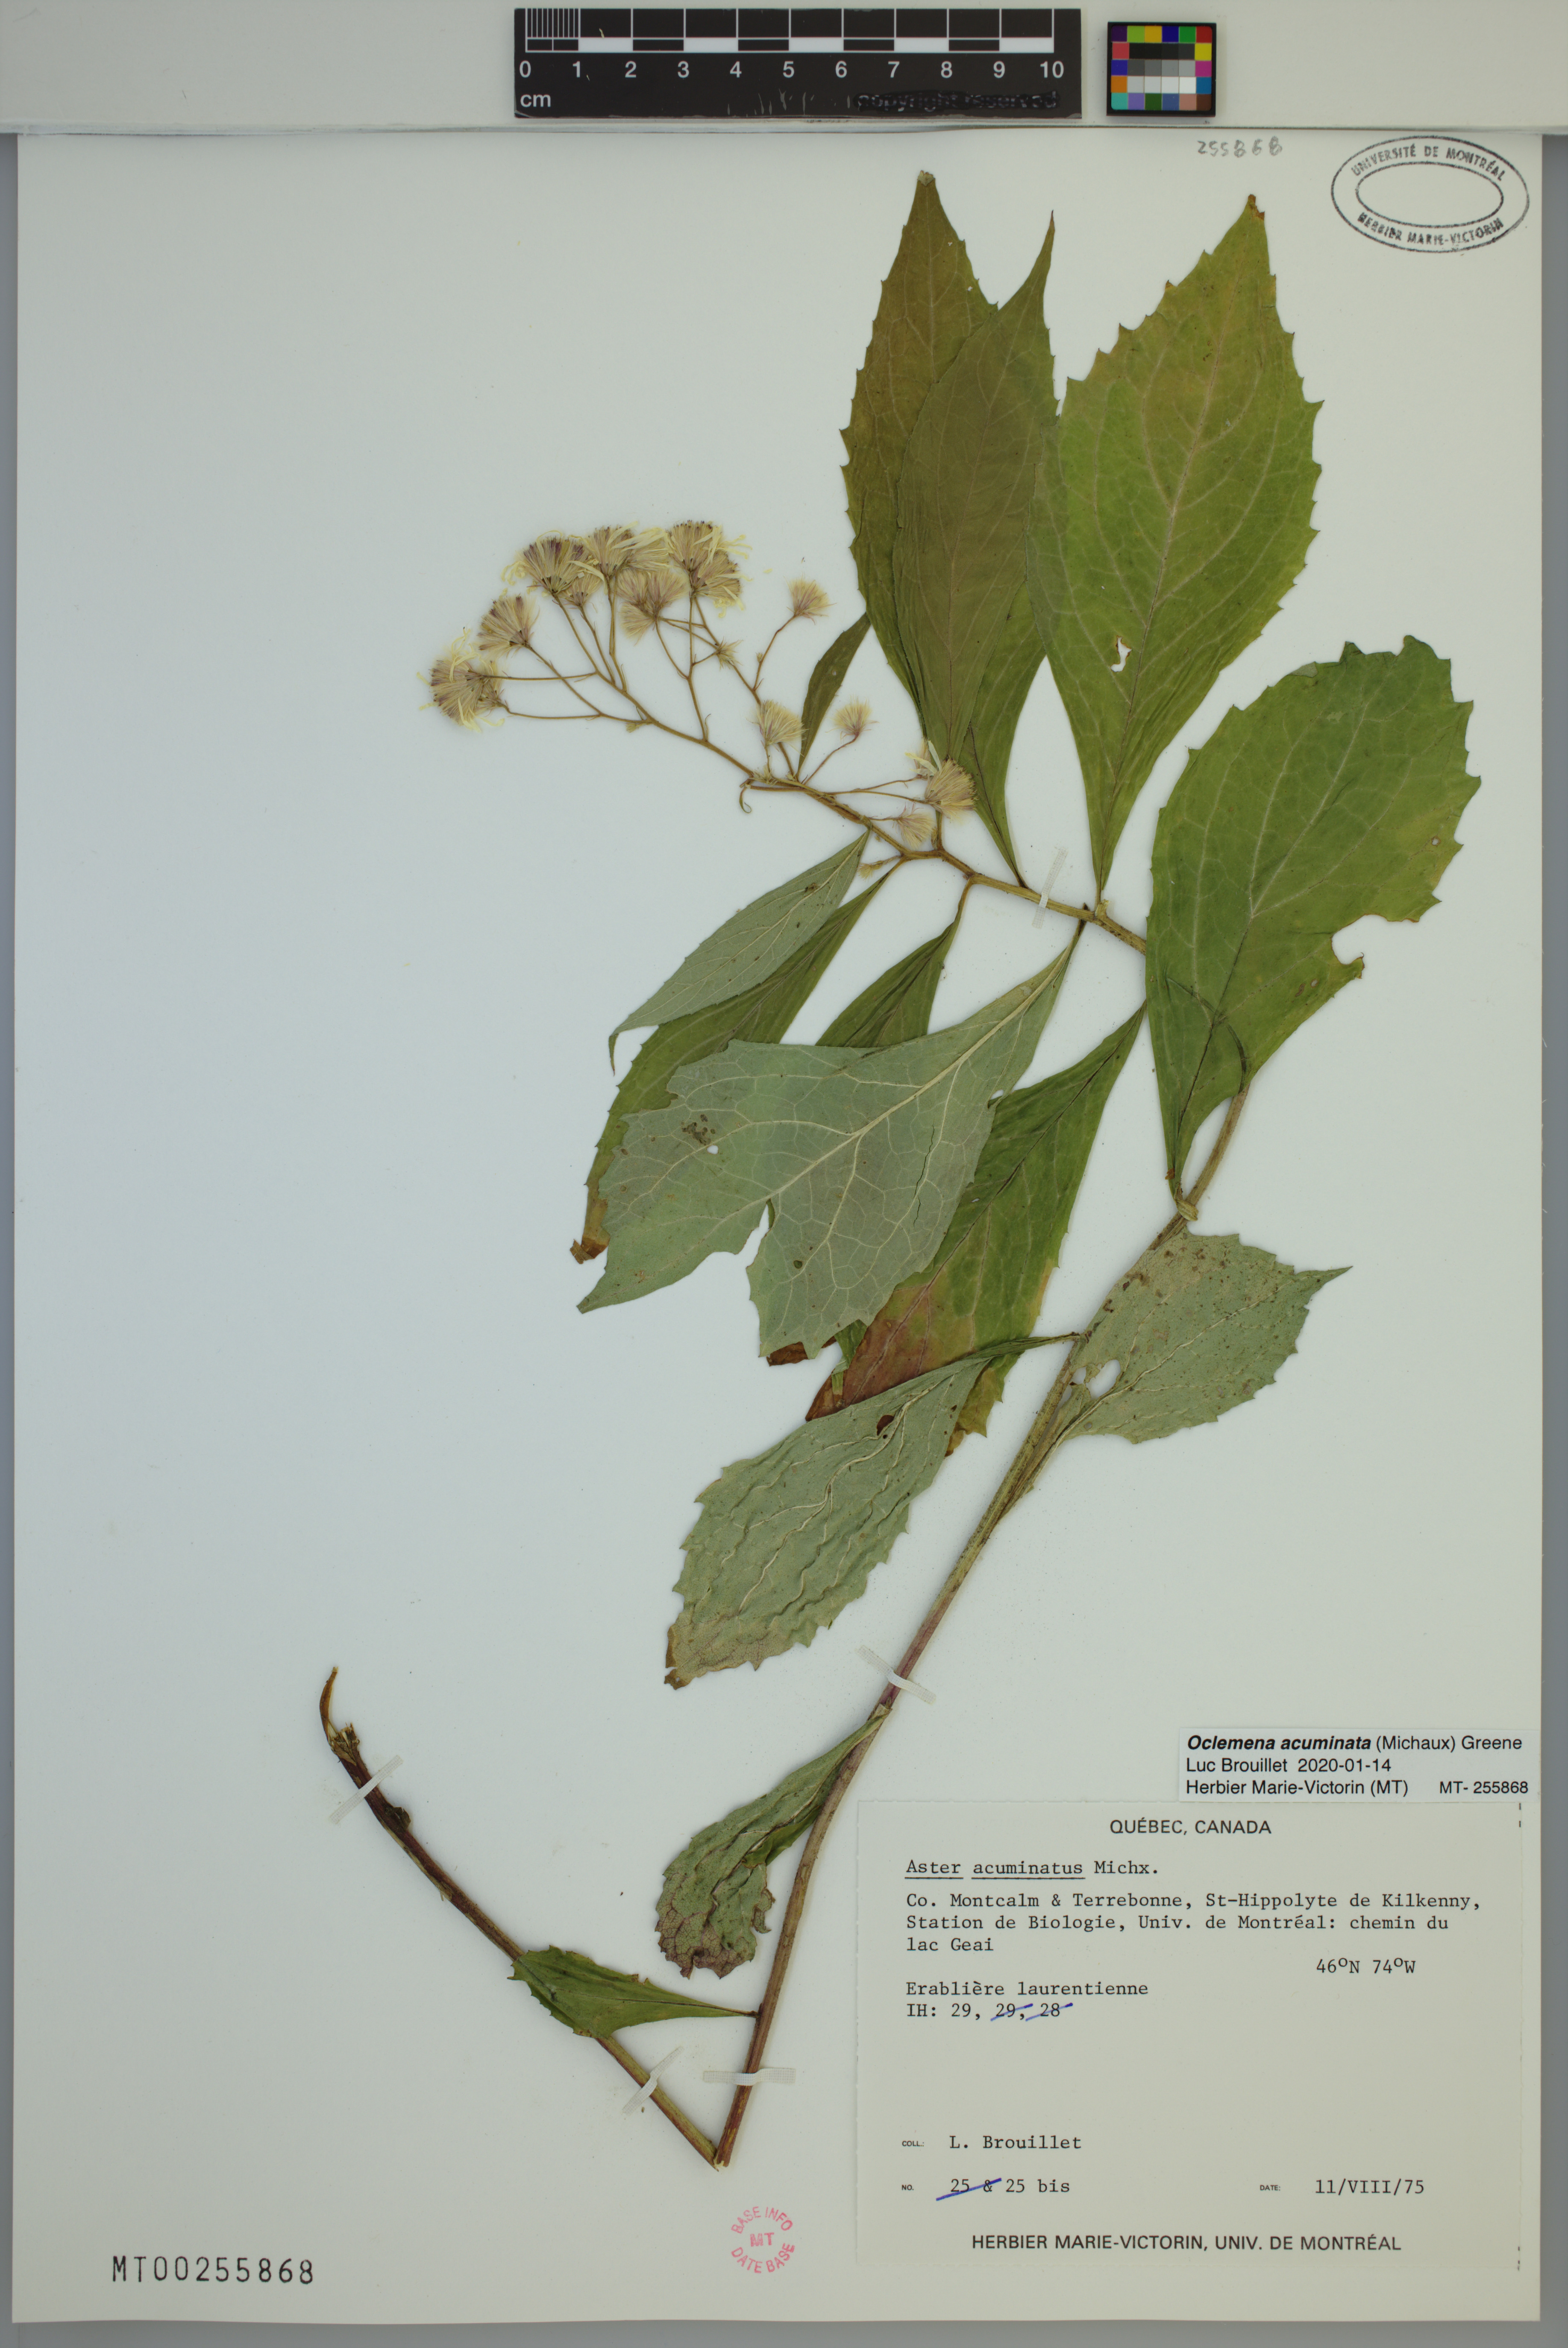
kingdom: Plantae
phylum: Tracheophyta
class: Magnoliopsida
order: Asterales
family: Asteraceae
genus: Oclemena
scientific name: Oclemena acuminata
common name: Mountain aster
